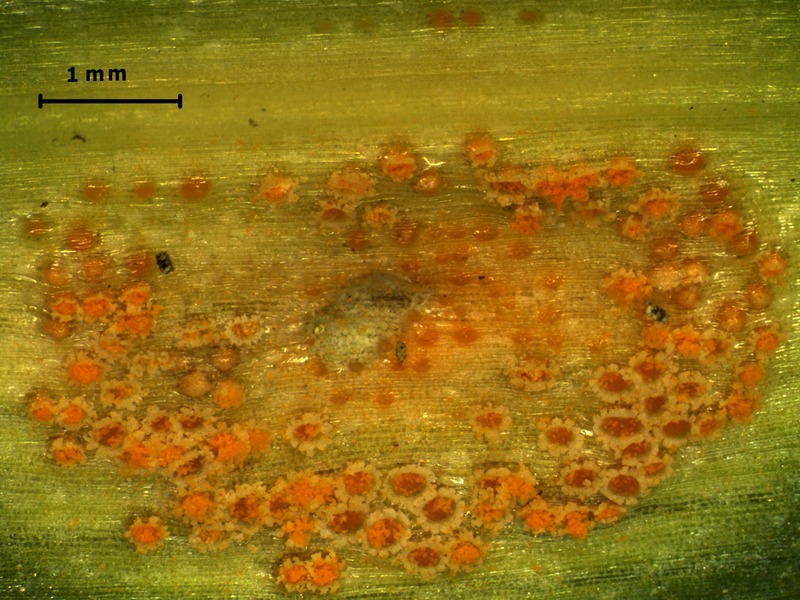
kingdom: Fungi
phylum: Basidiomycota
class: Pucciniomycetes
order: Pucciniales
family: Pucciniaceae
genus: Puccinia
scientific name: Puccinia sessilis
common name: Arum rust
